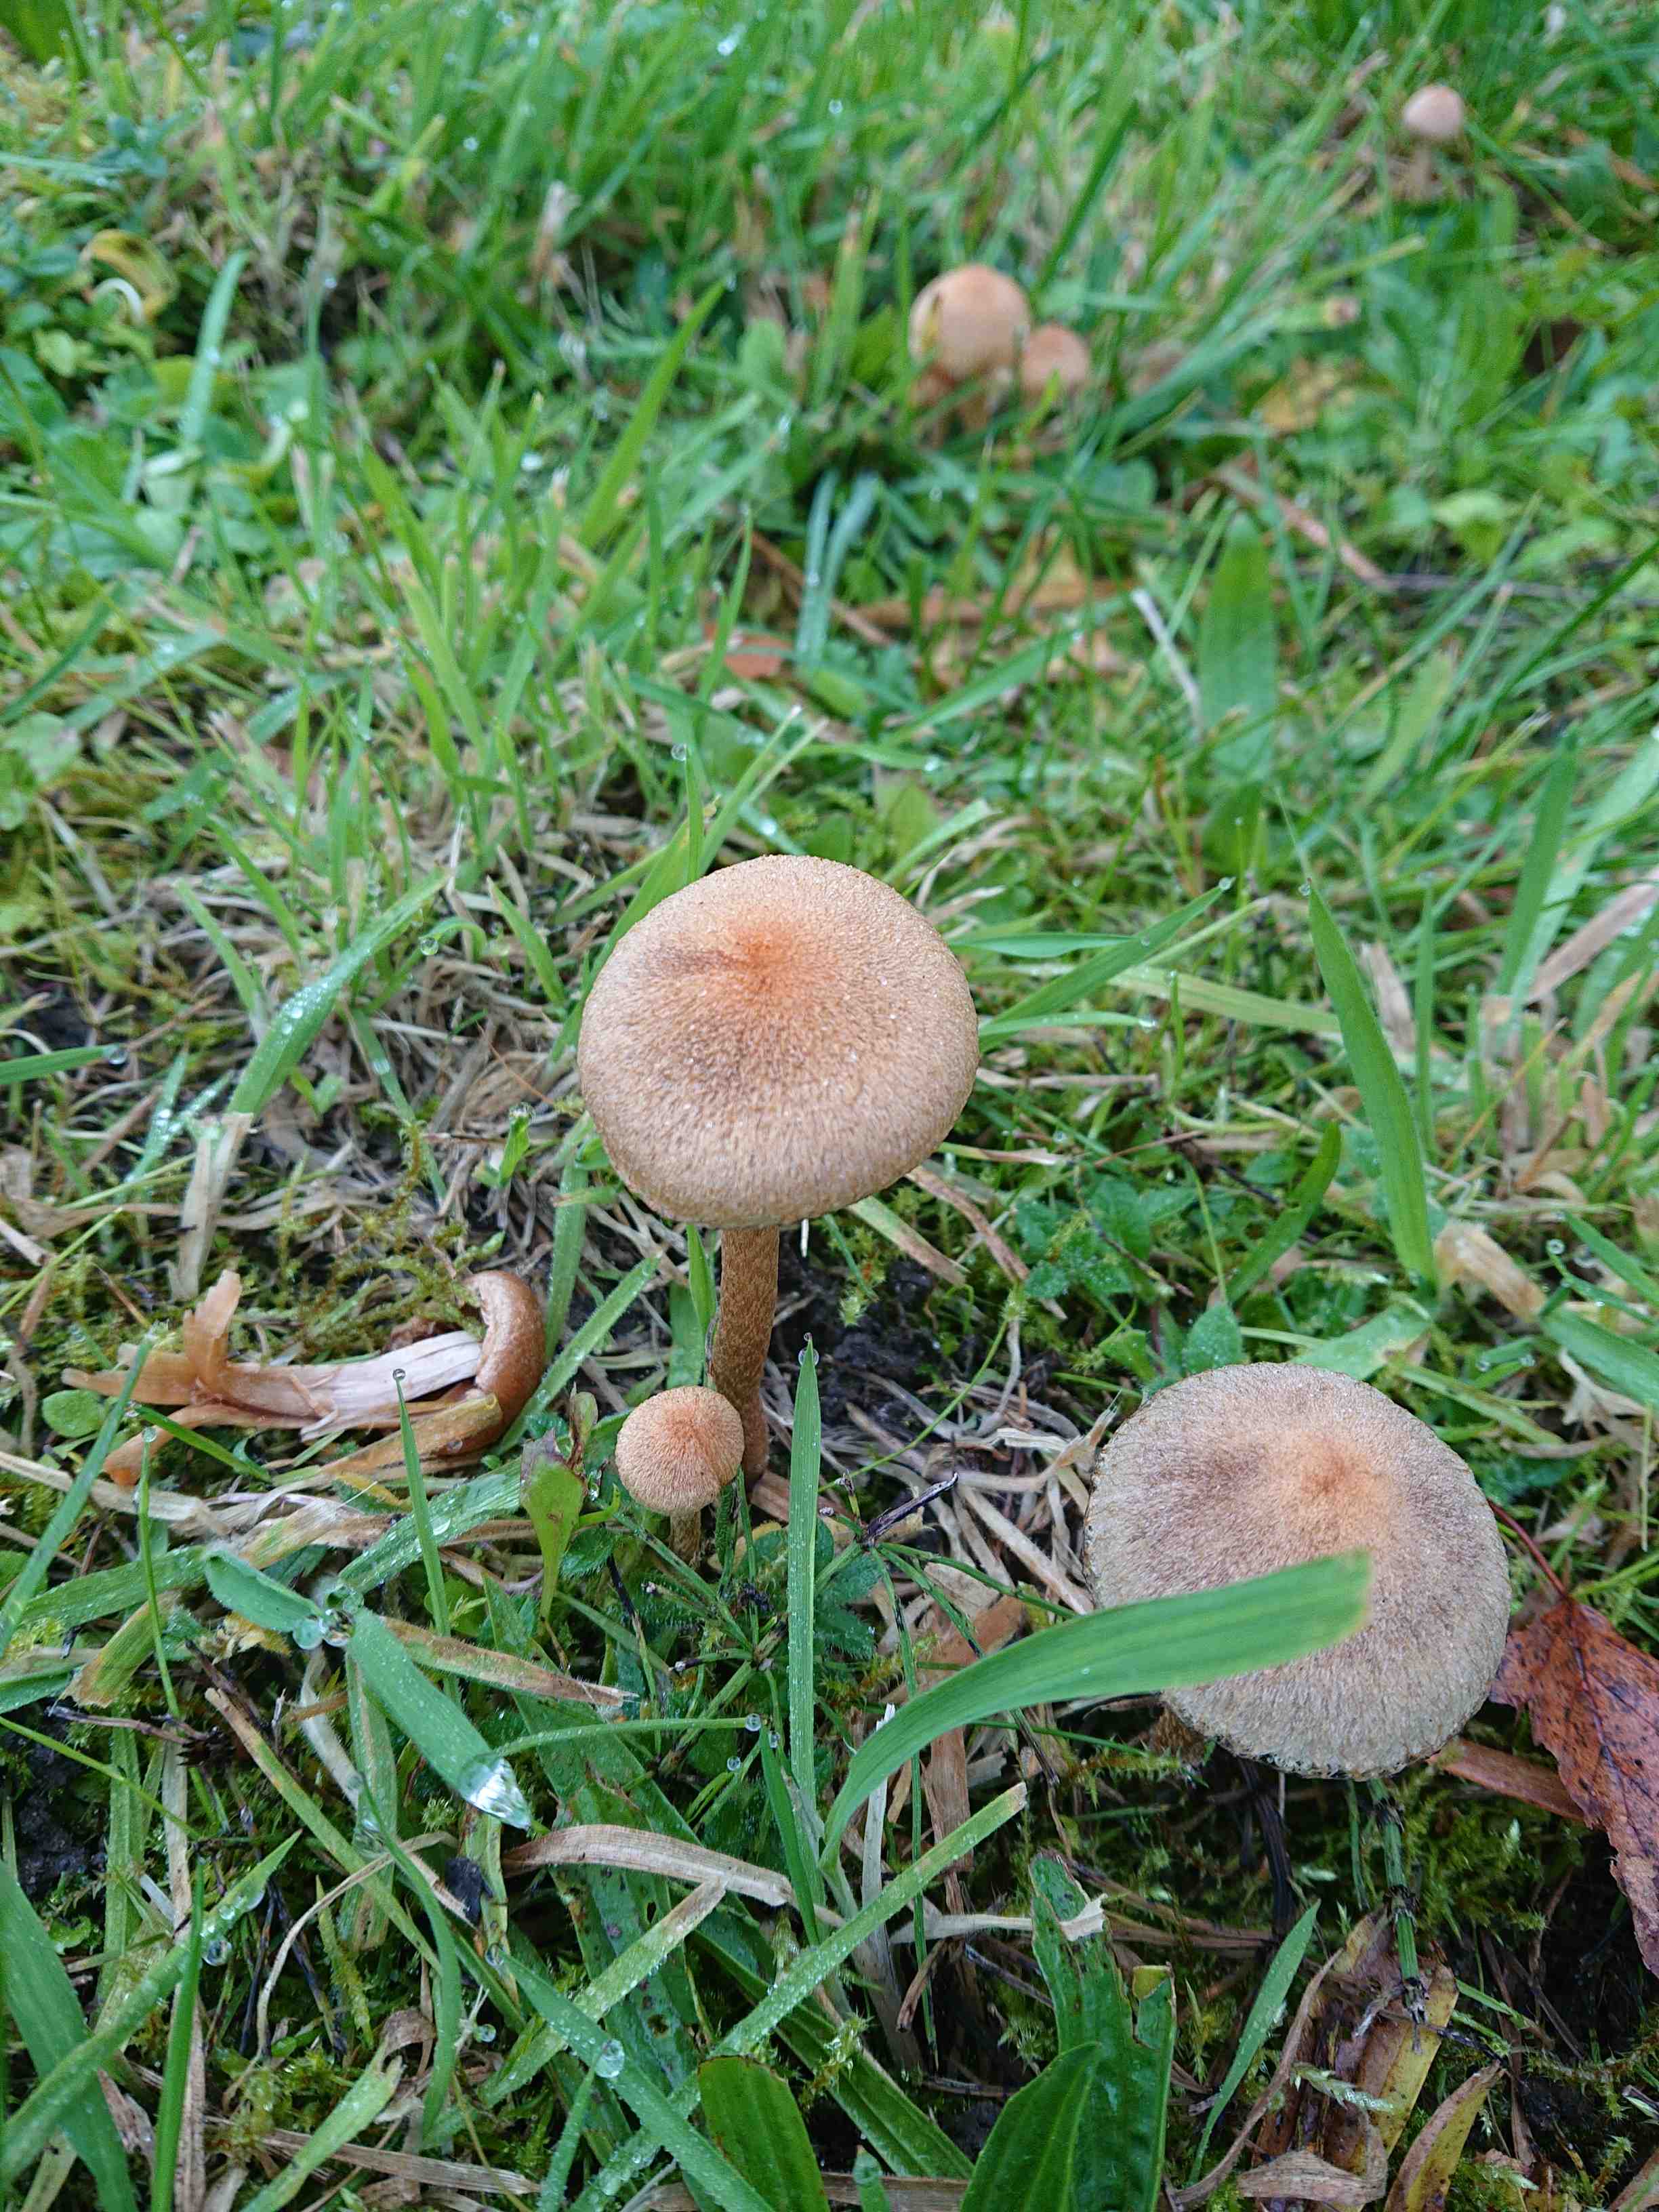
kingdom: Fungi
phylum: Basidiomycota
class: Agaricomycetes
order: Agaricales
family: Psathyrellaceae
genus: Lacrymaria
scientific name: Lacrymaria lacrymabunda
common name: grædende mørkhat
